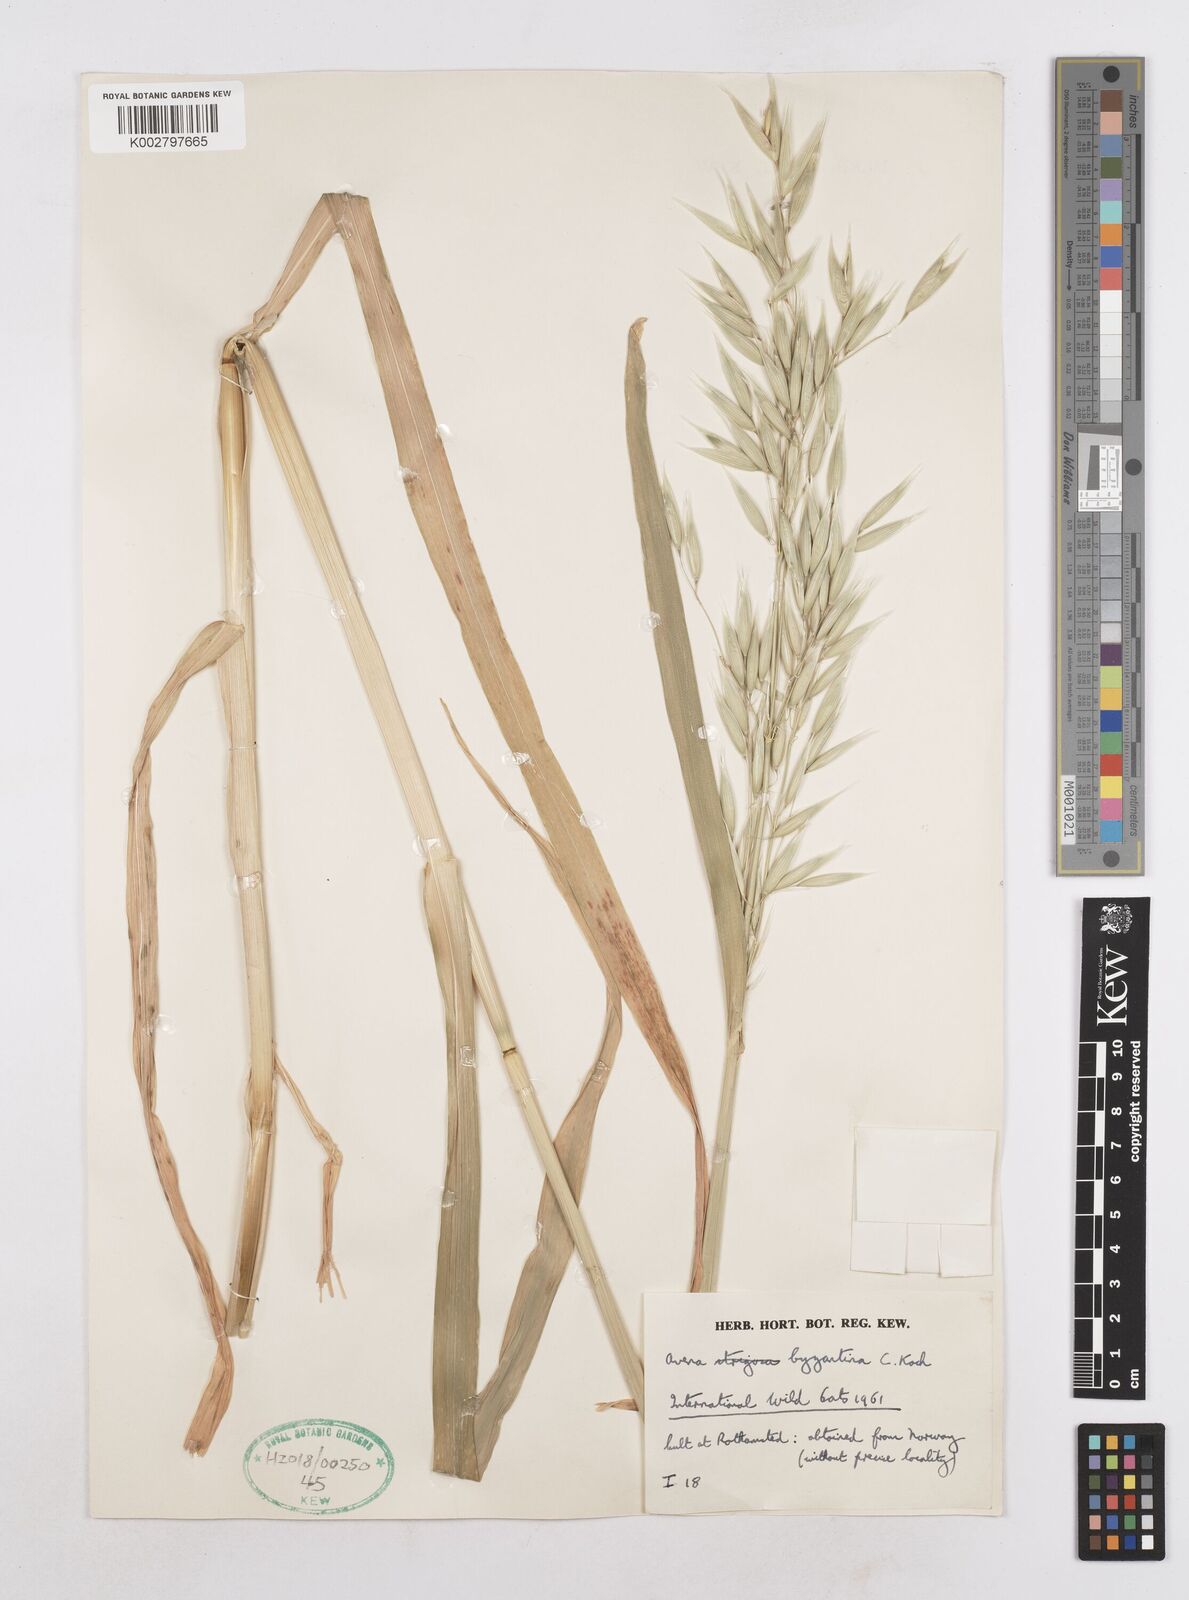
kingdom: Plantae
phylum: Tracheophyta
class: Liliopsida
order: Poales
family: Poaceae
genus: Avena
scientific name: Avena byzantina
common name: Algerian oat
